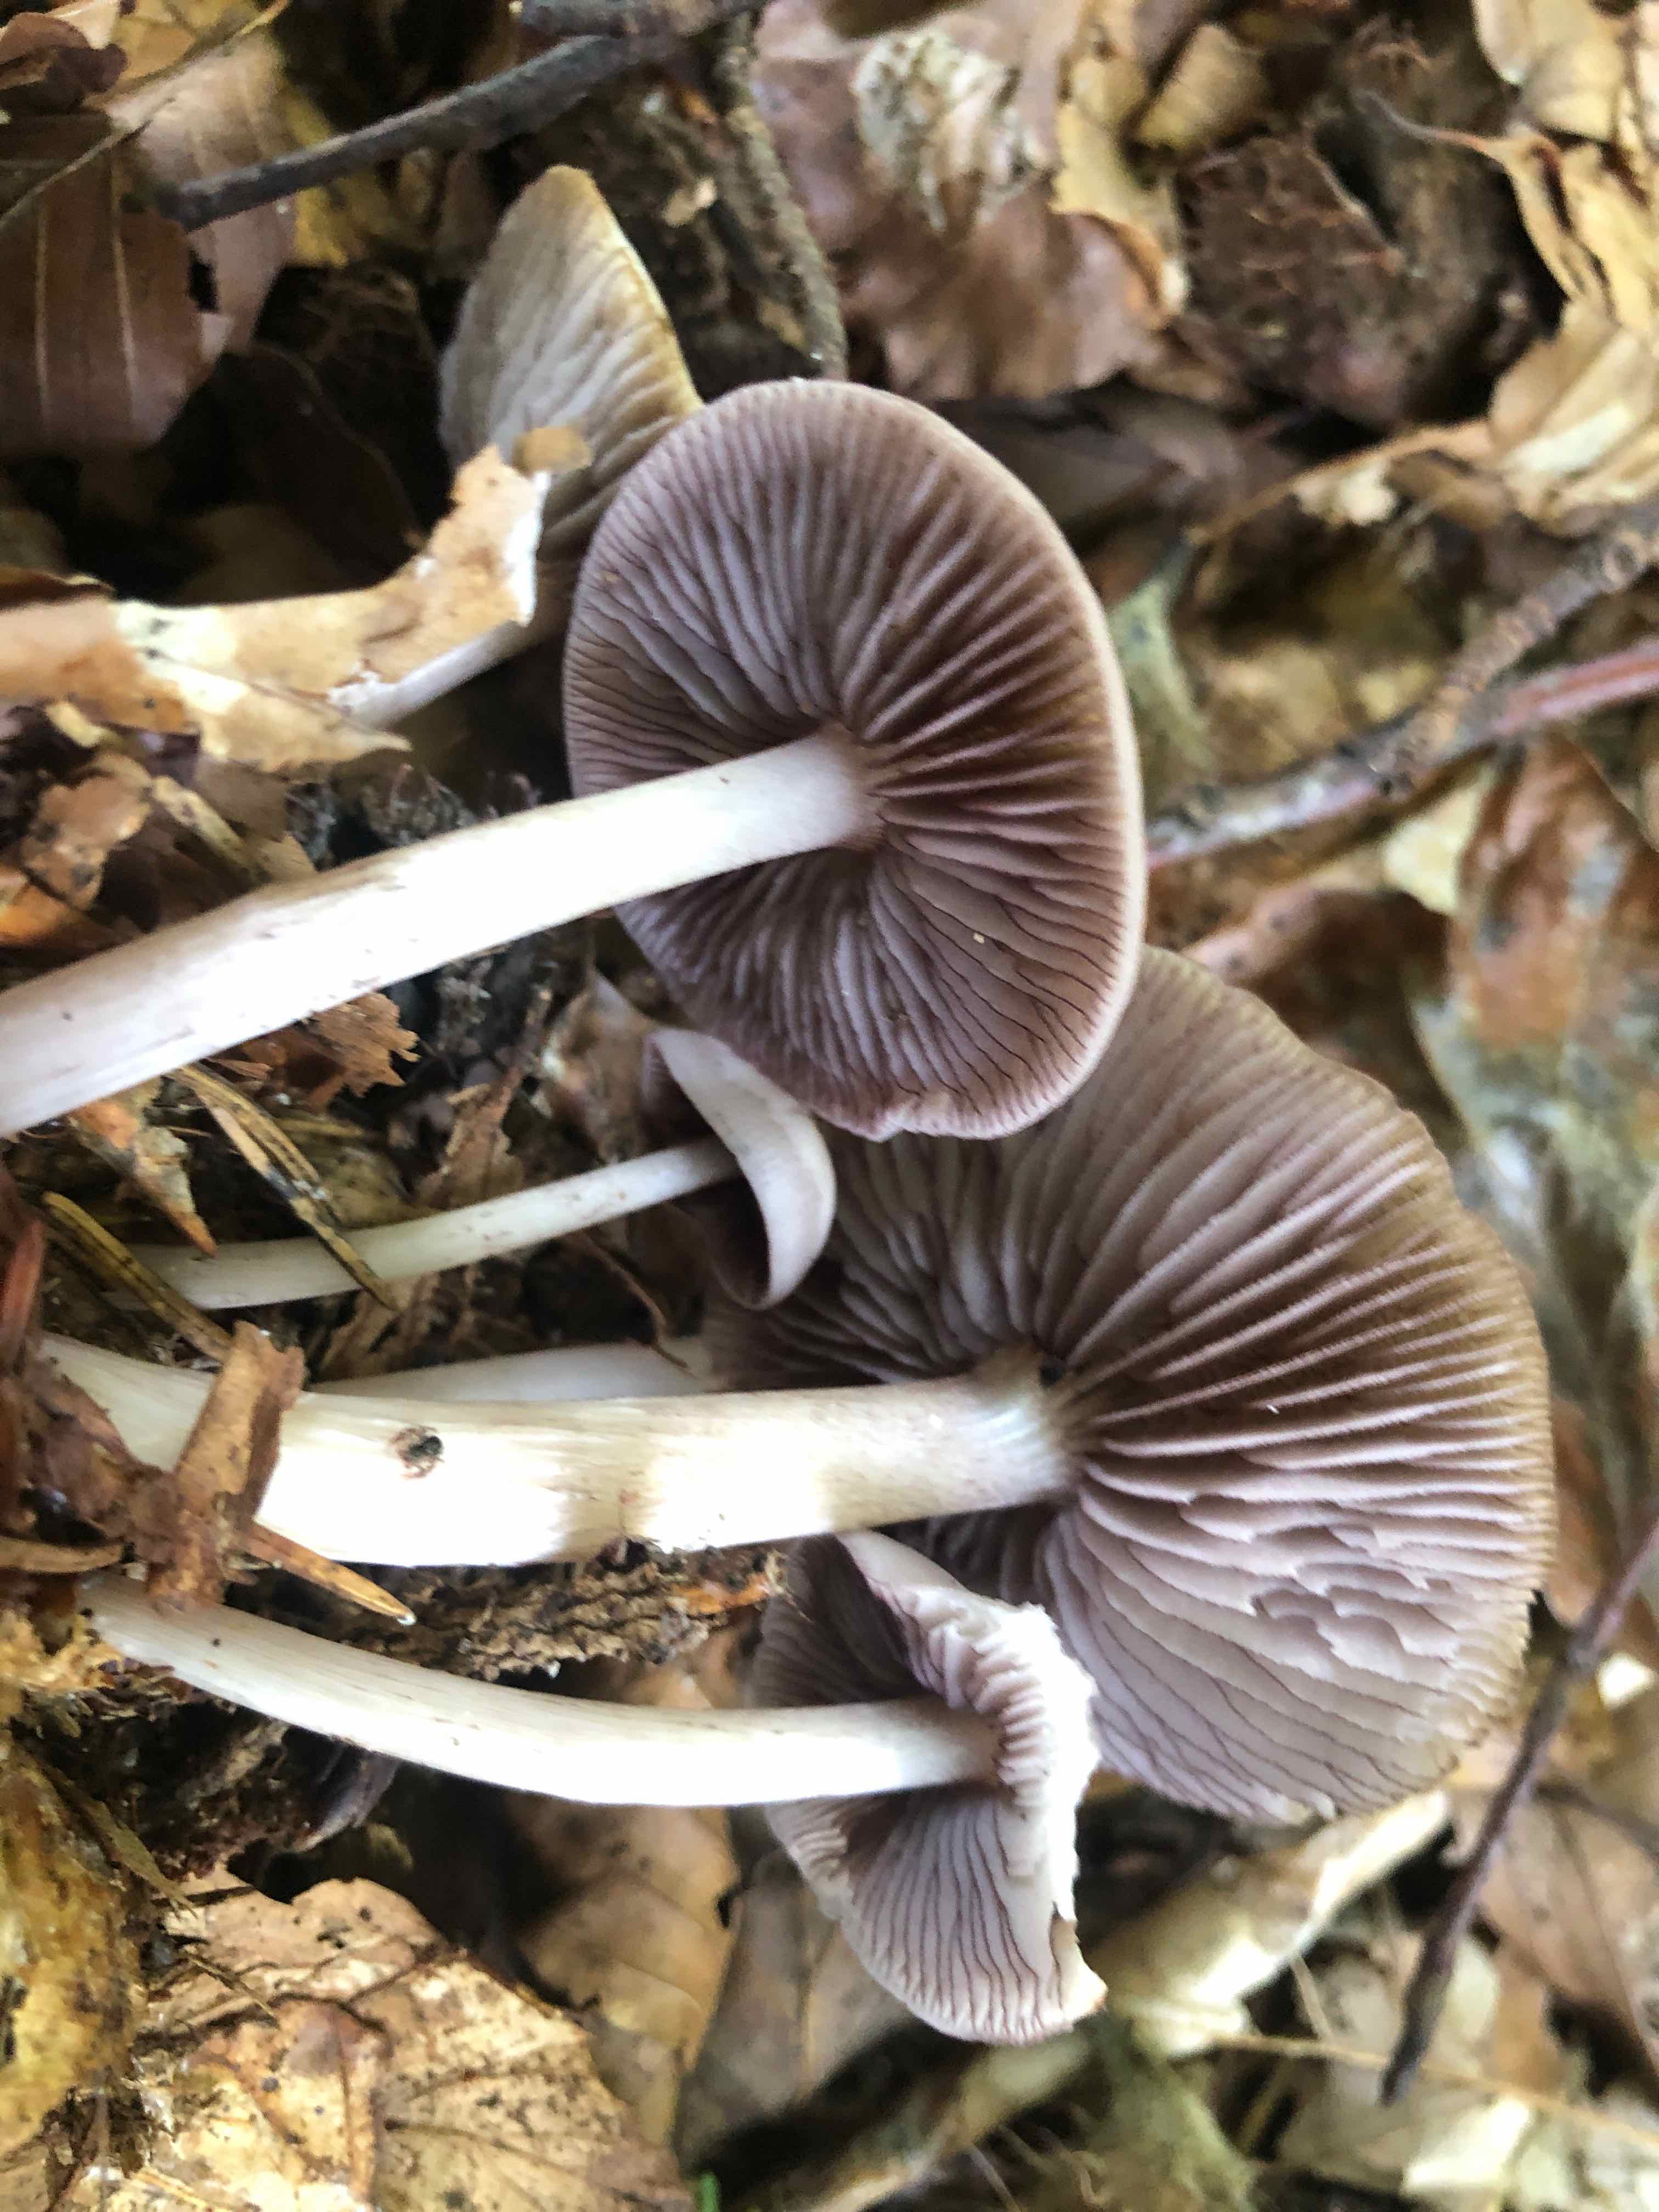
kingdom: Fungi
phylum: Basidiomycota
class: Agaricomycetes
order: Agaricales
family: Mycenaceae
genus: Mycena
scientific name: Mycena pelianthina
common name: mørkbladet huesvamp
